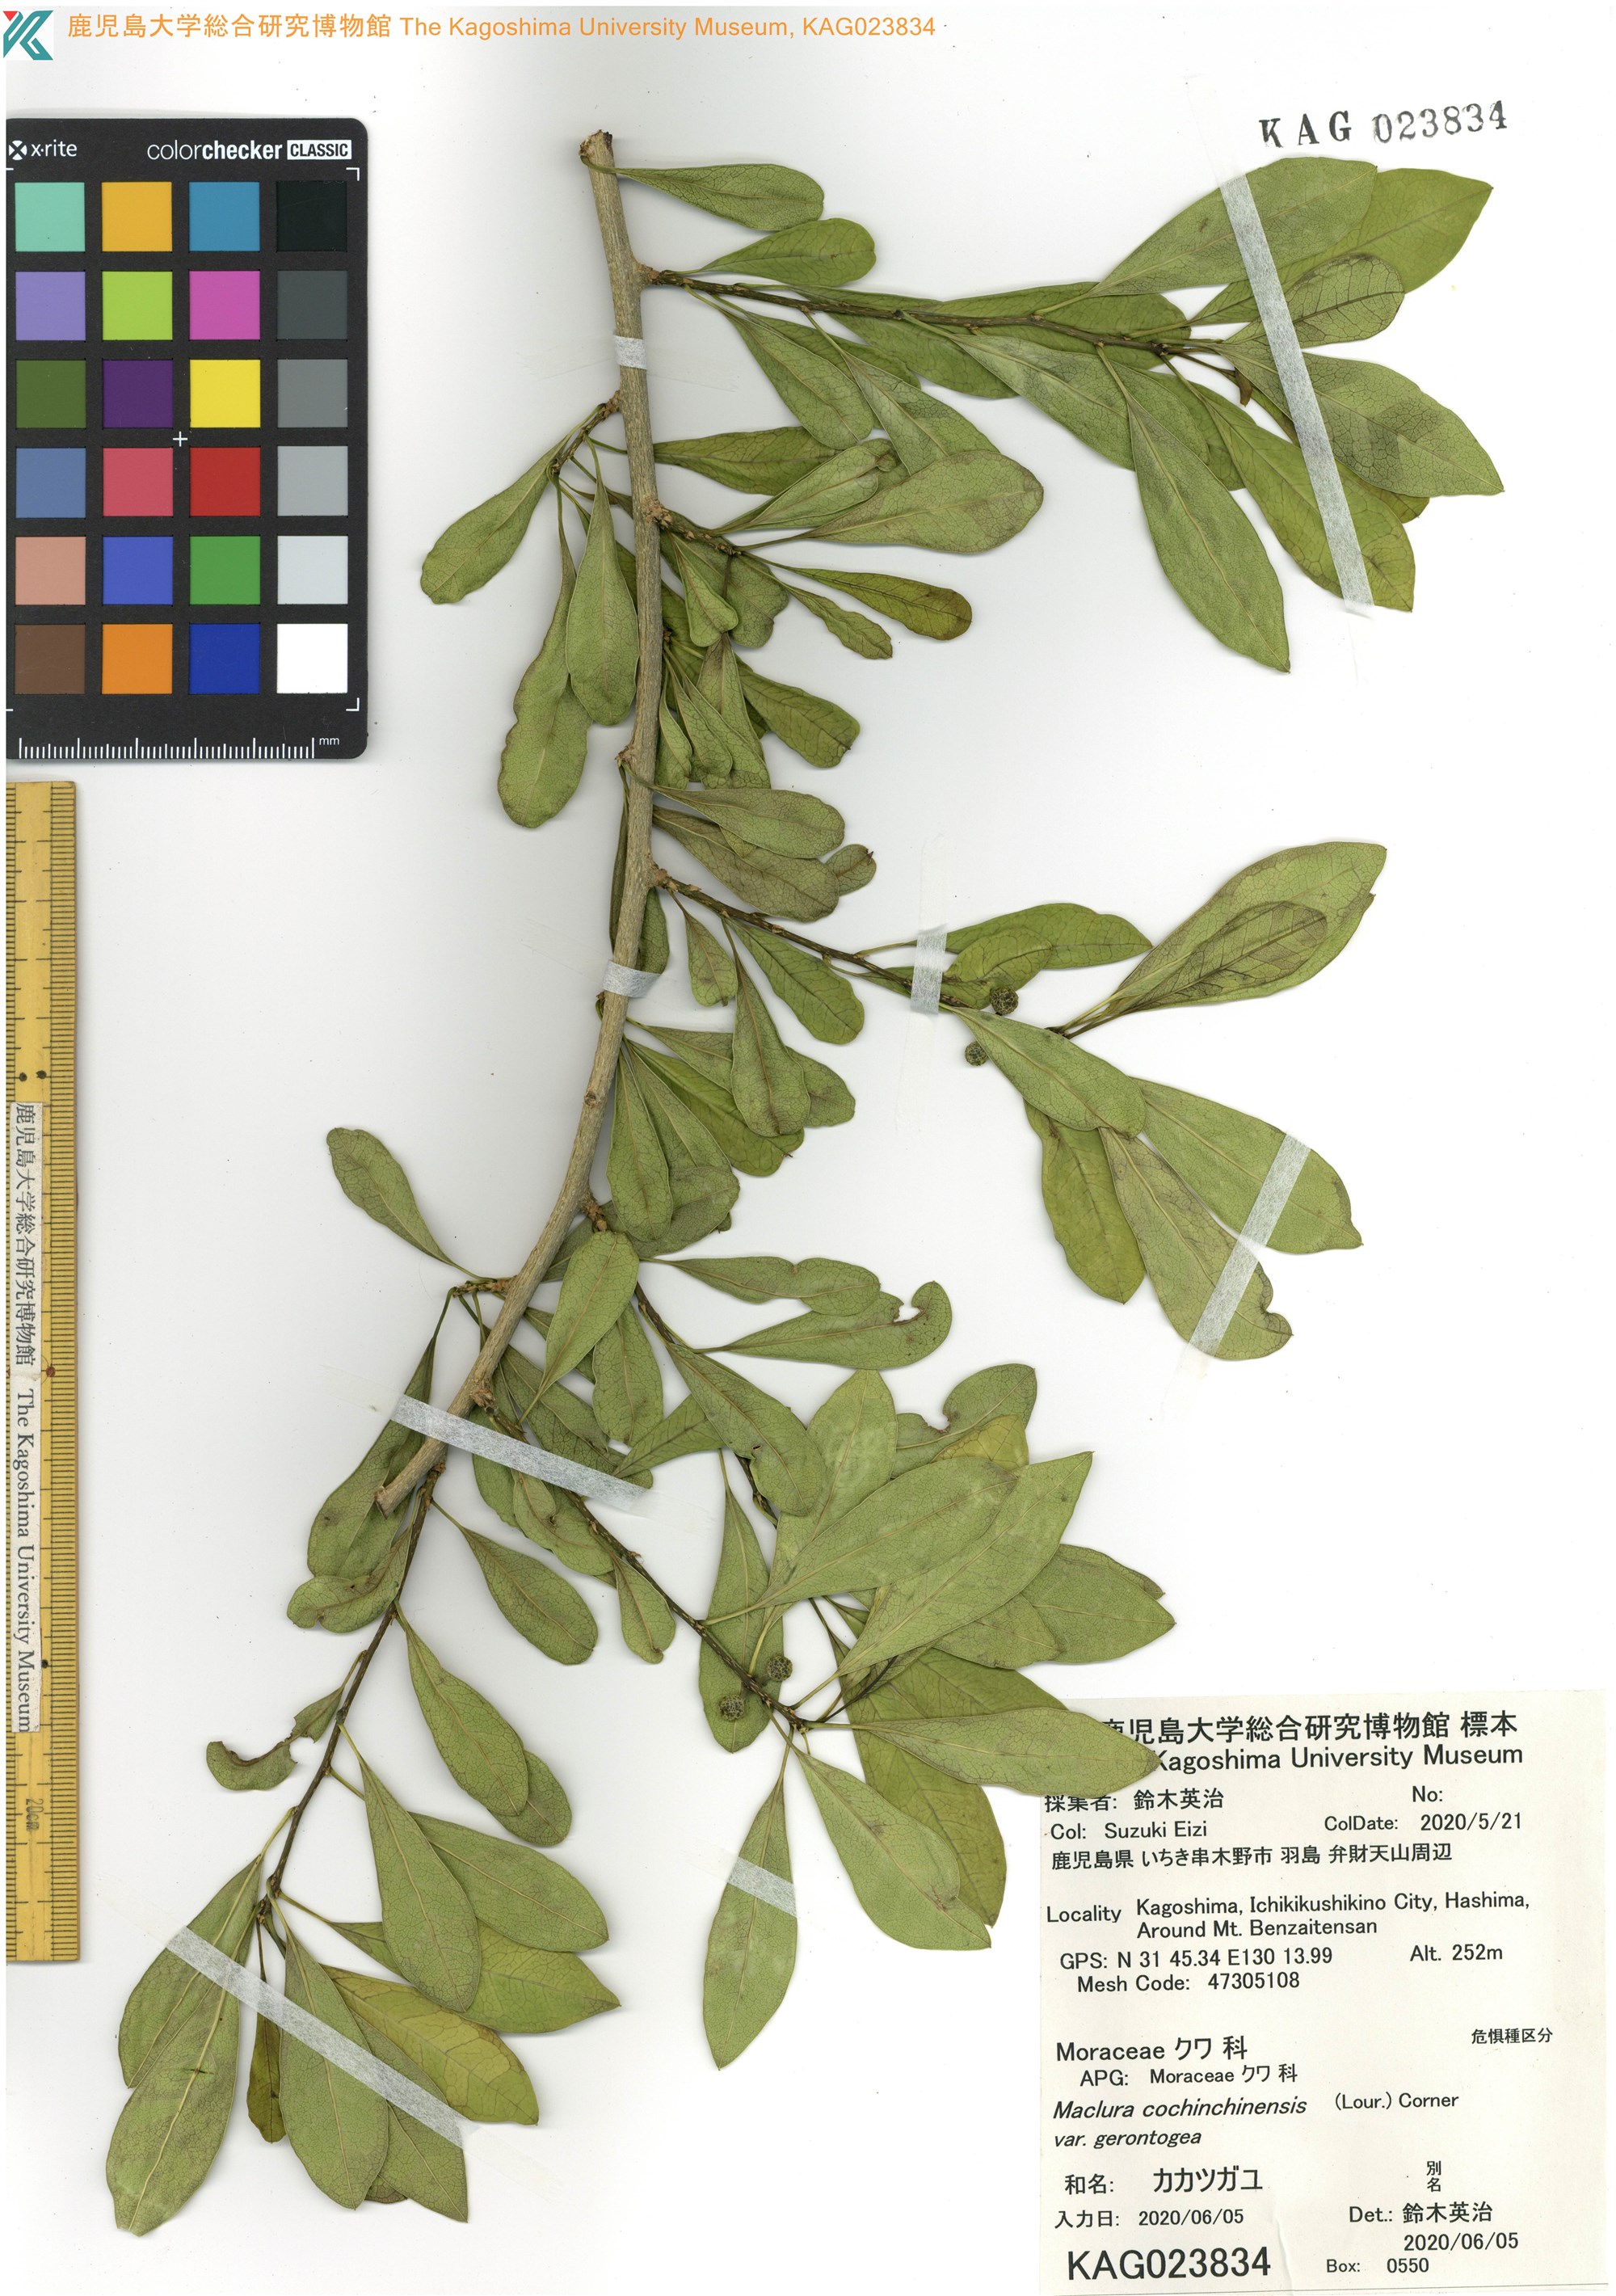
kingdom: Plantae
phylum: Tracheophyta
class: Magnoliopsida
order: Rosales
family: Moraceae
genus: Maclura
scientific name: Maclura cochinchinensis
